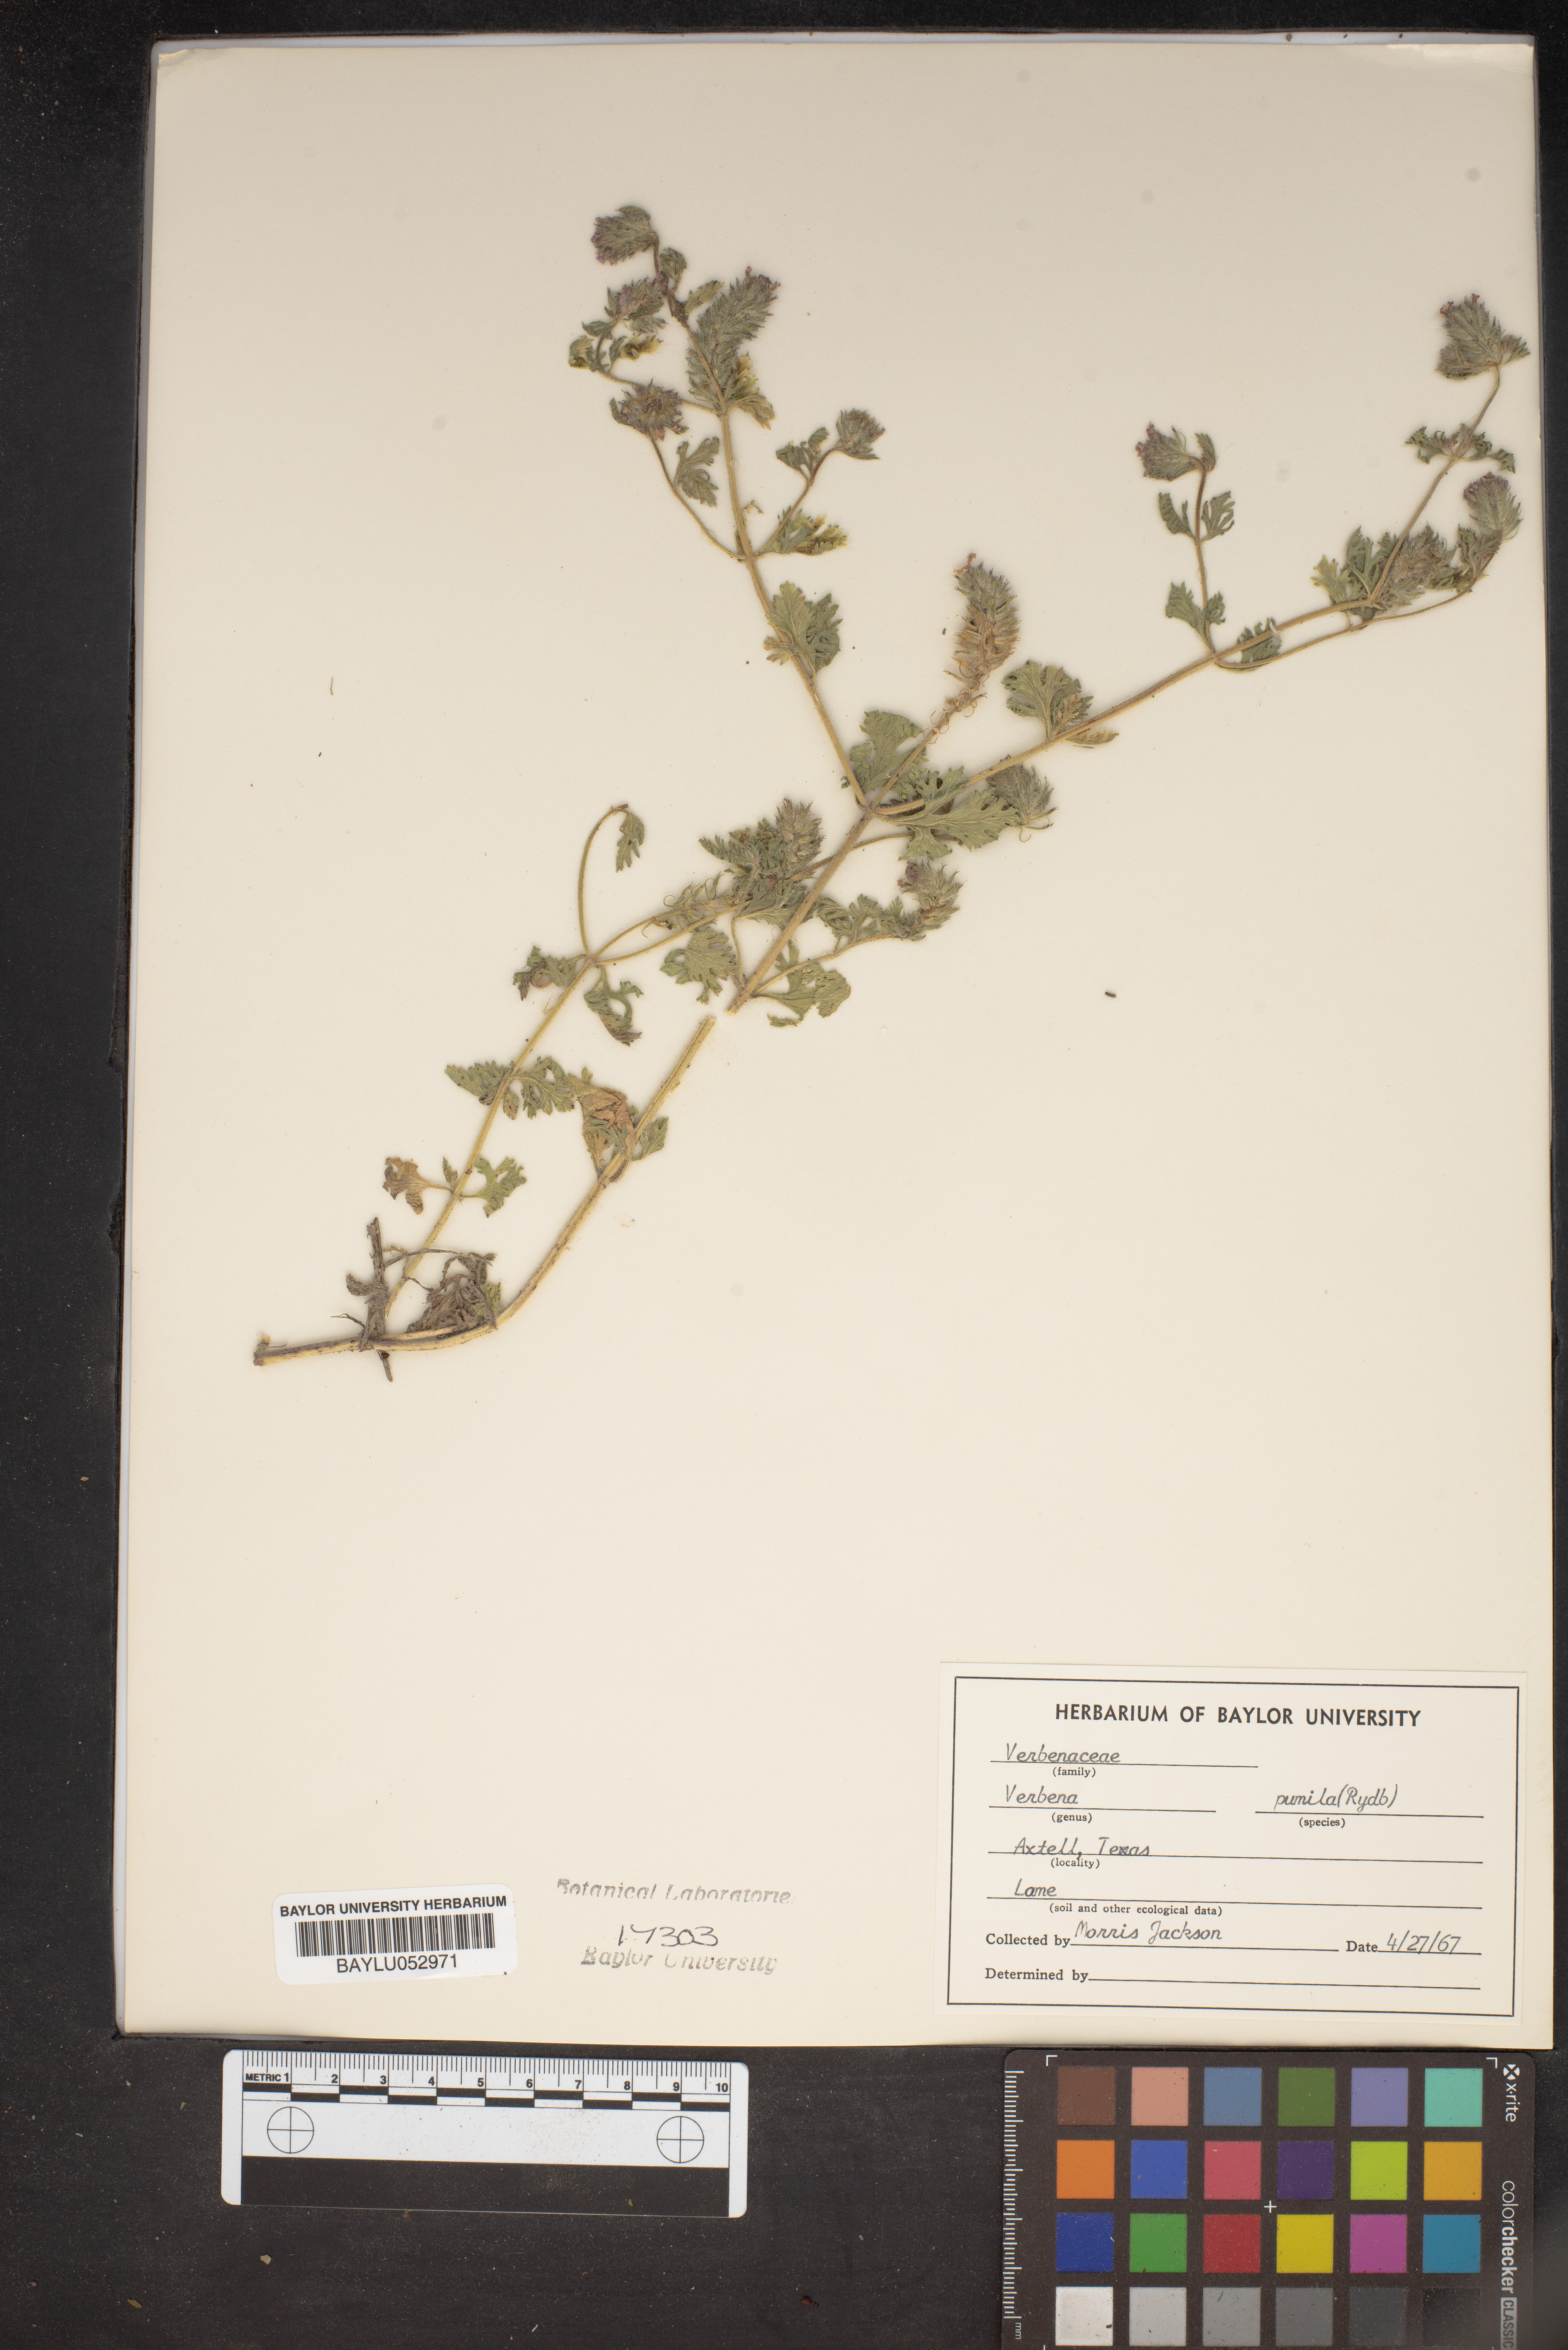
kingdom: Plantae
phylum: Tracheophyta
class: Magnoliopsida
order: Lamiales
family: Verbenaceae
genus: Verbena
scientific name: Verbena pumila
